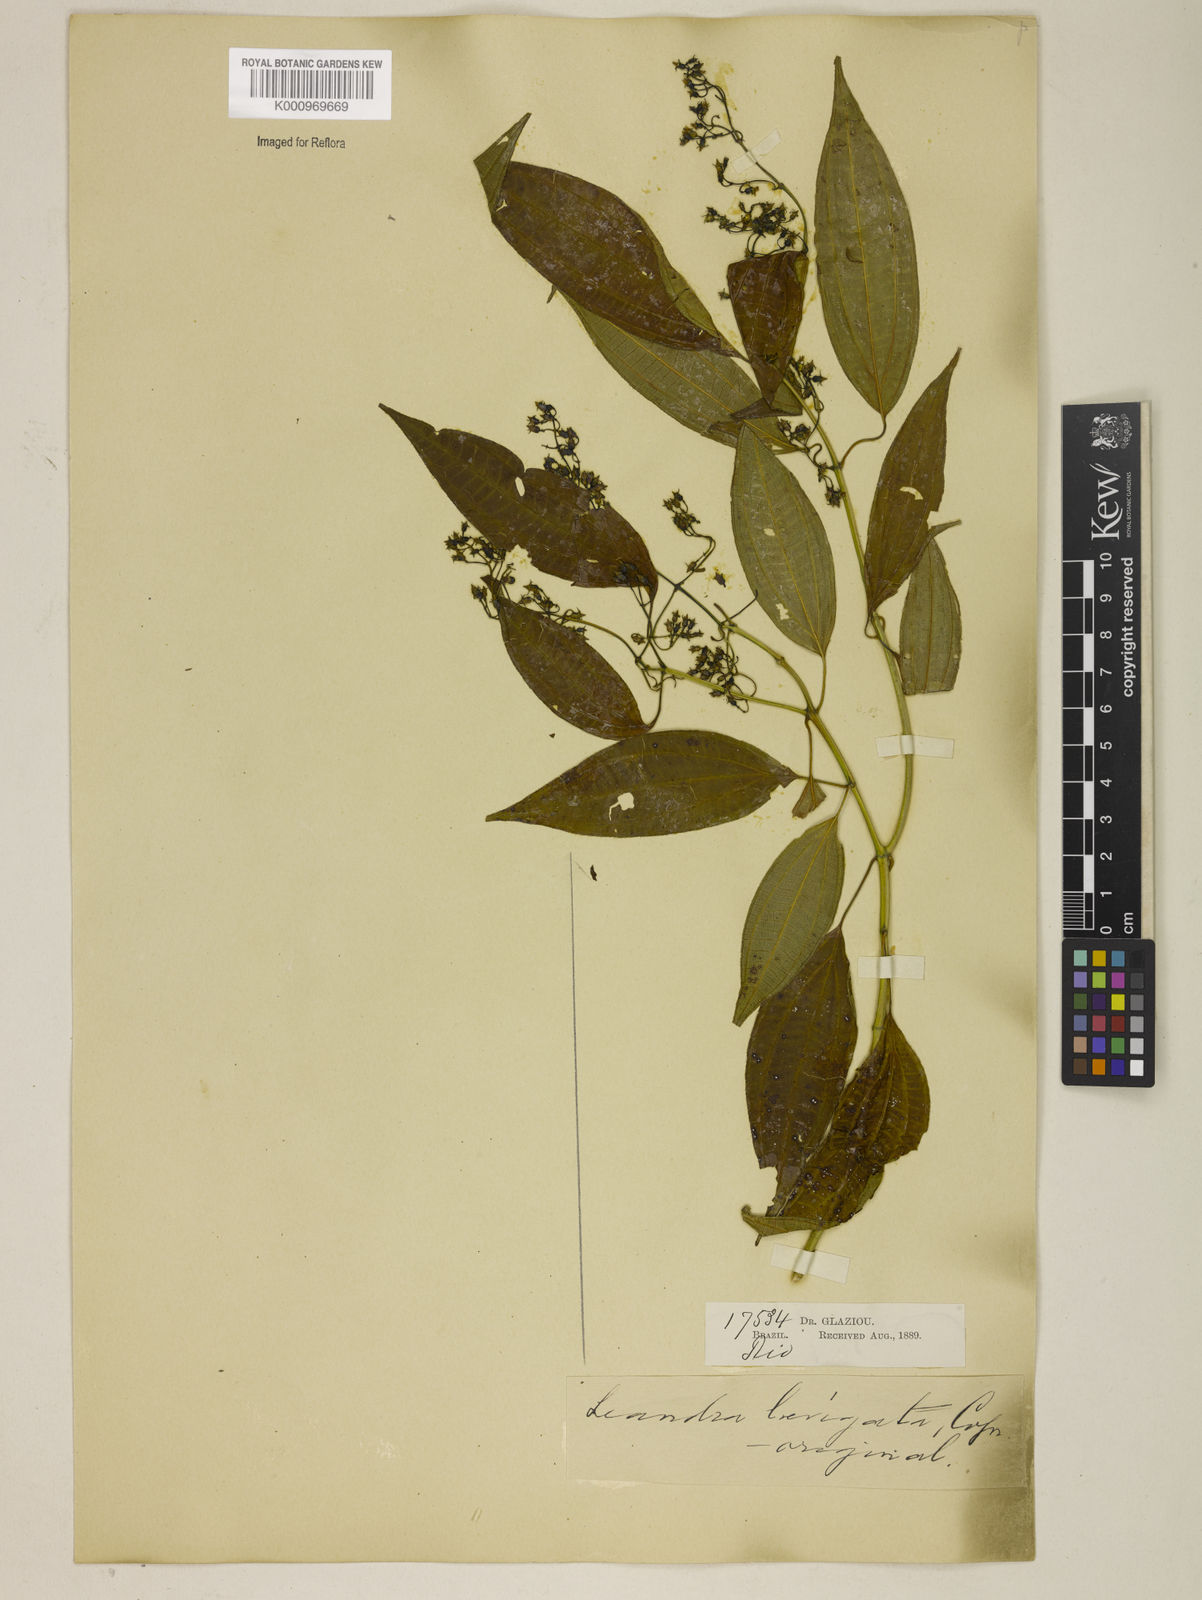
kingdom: Plantae
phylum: Tracheophyta
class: Magnoliopsida
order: Myrtales
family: Melastomataceae
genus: Miconia
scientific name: Miconia ciliolata
